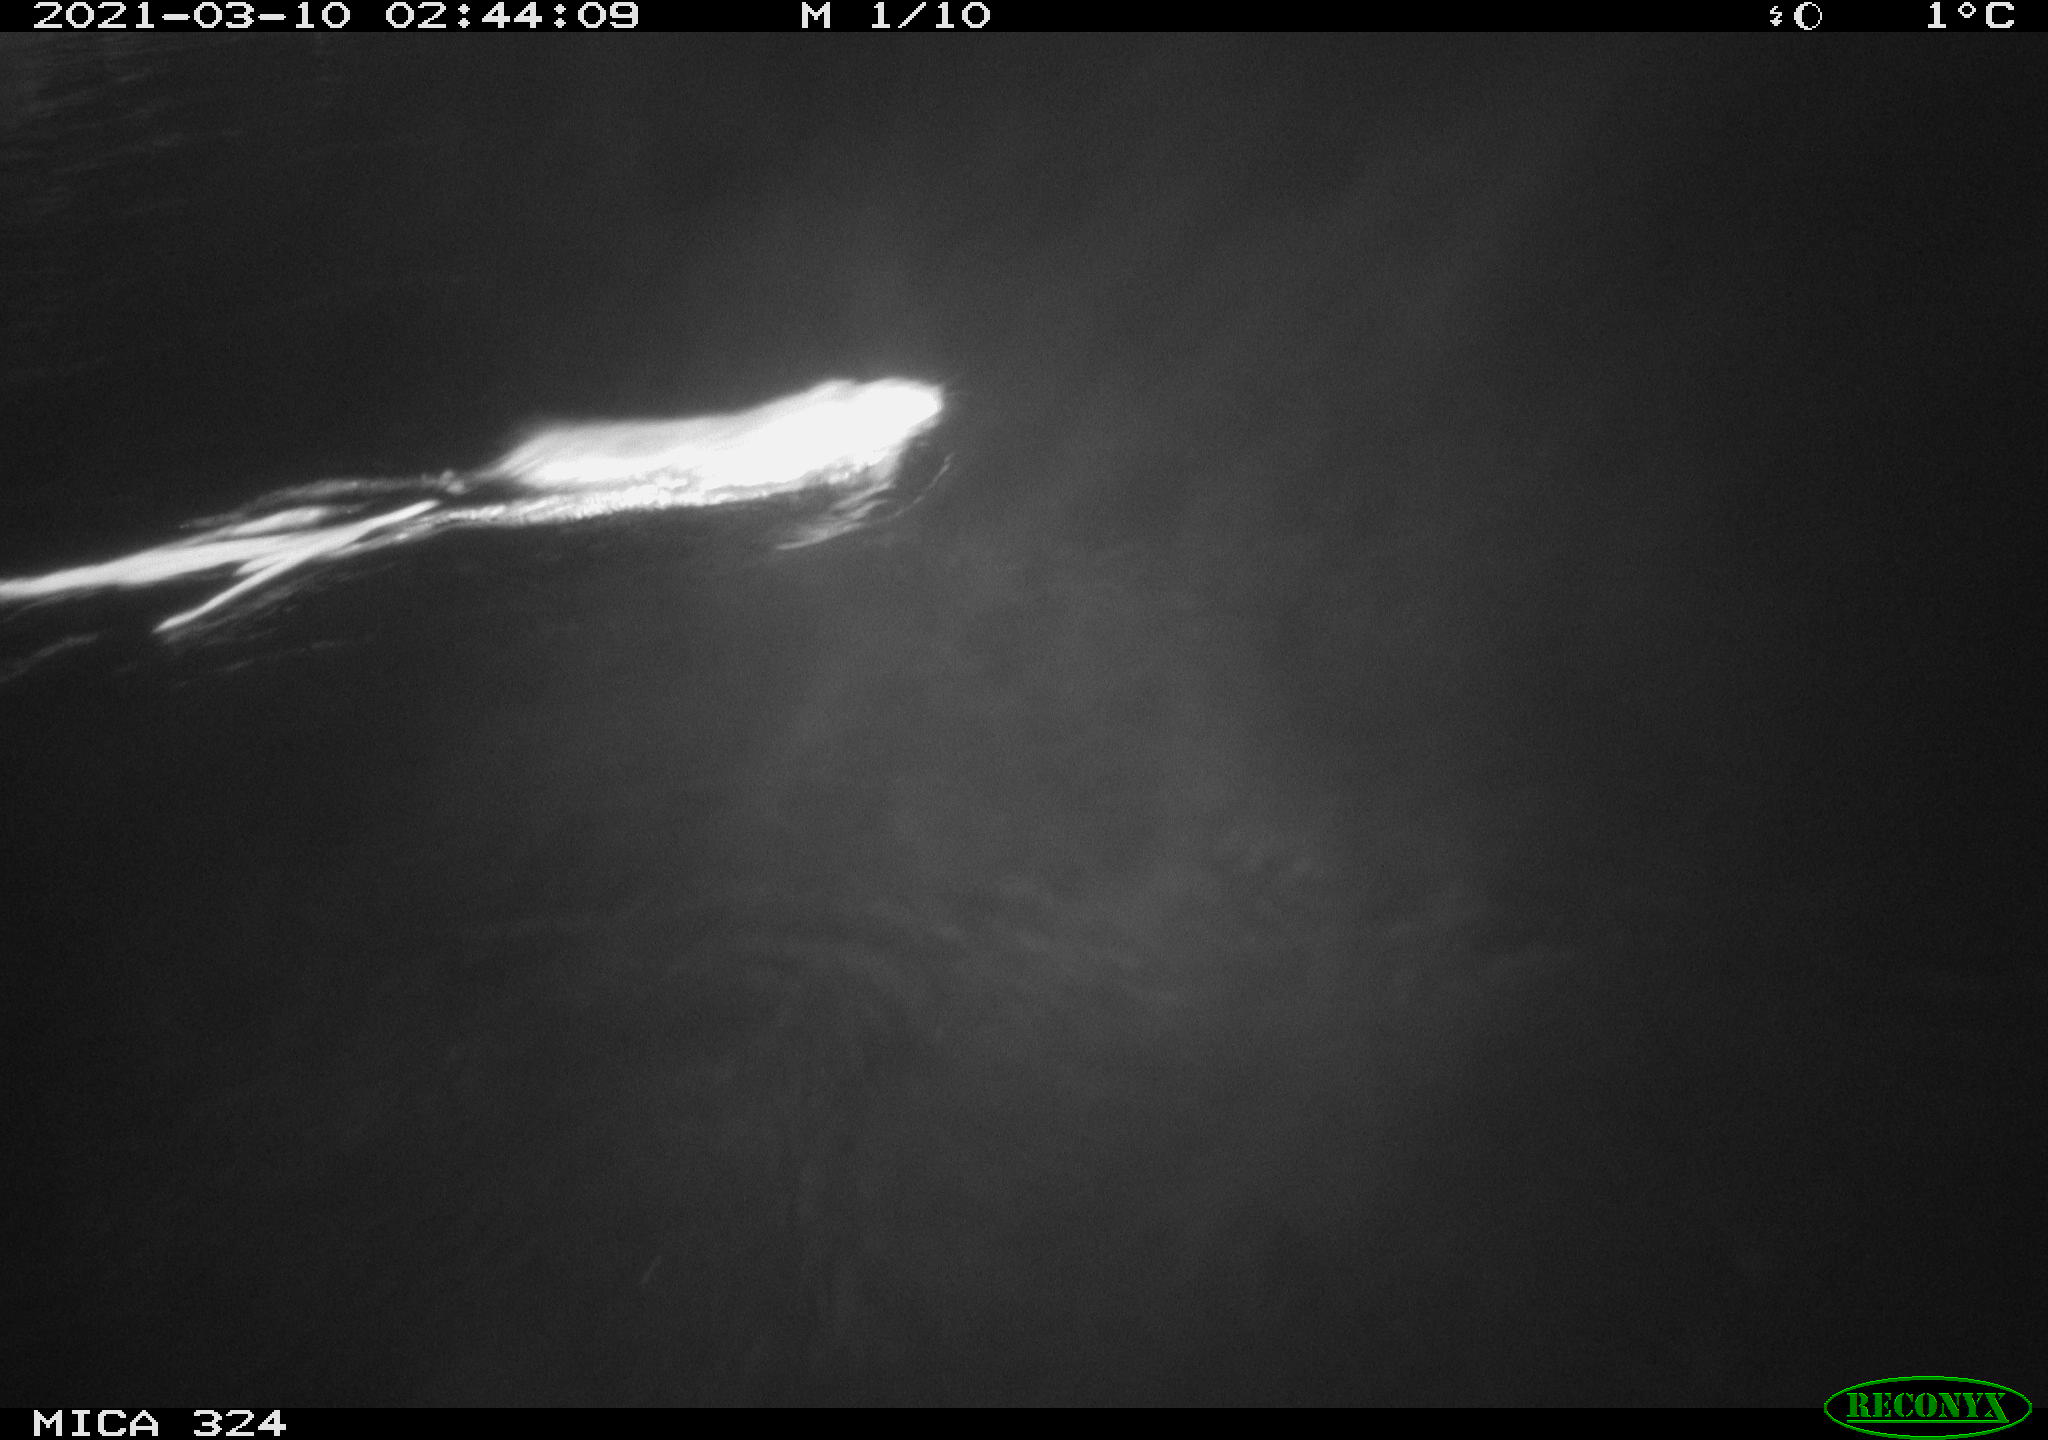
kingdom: Animalia
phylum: Chordata
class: Mammalia
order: Rodentia
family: Cricetidae
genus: Ondatra
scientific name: Ondatra zibethicus
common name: Muskrat
